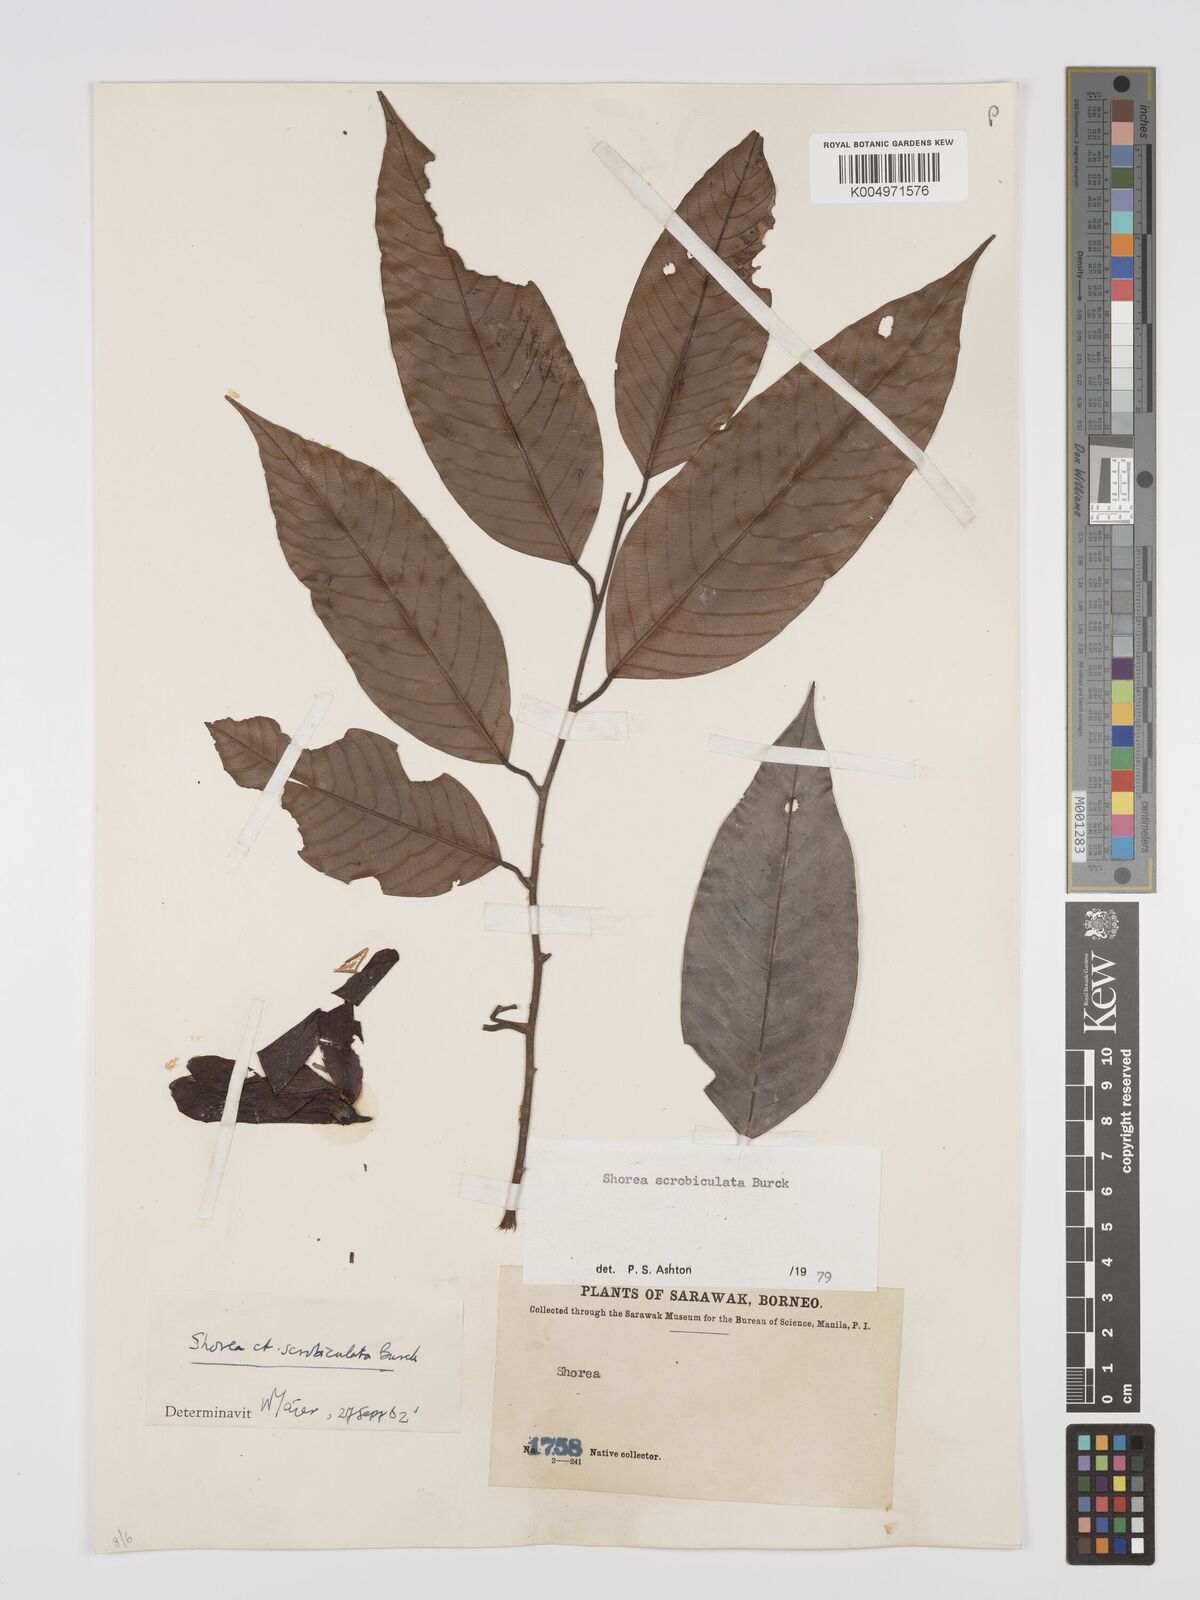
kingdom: Plantae
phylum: Tracheophyta
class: Magnoliopsida
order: Malvales
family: Dipterocarpaceae
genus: Shorea
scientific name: Shorea scrobiculata
